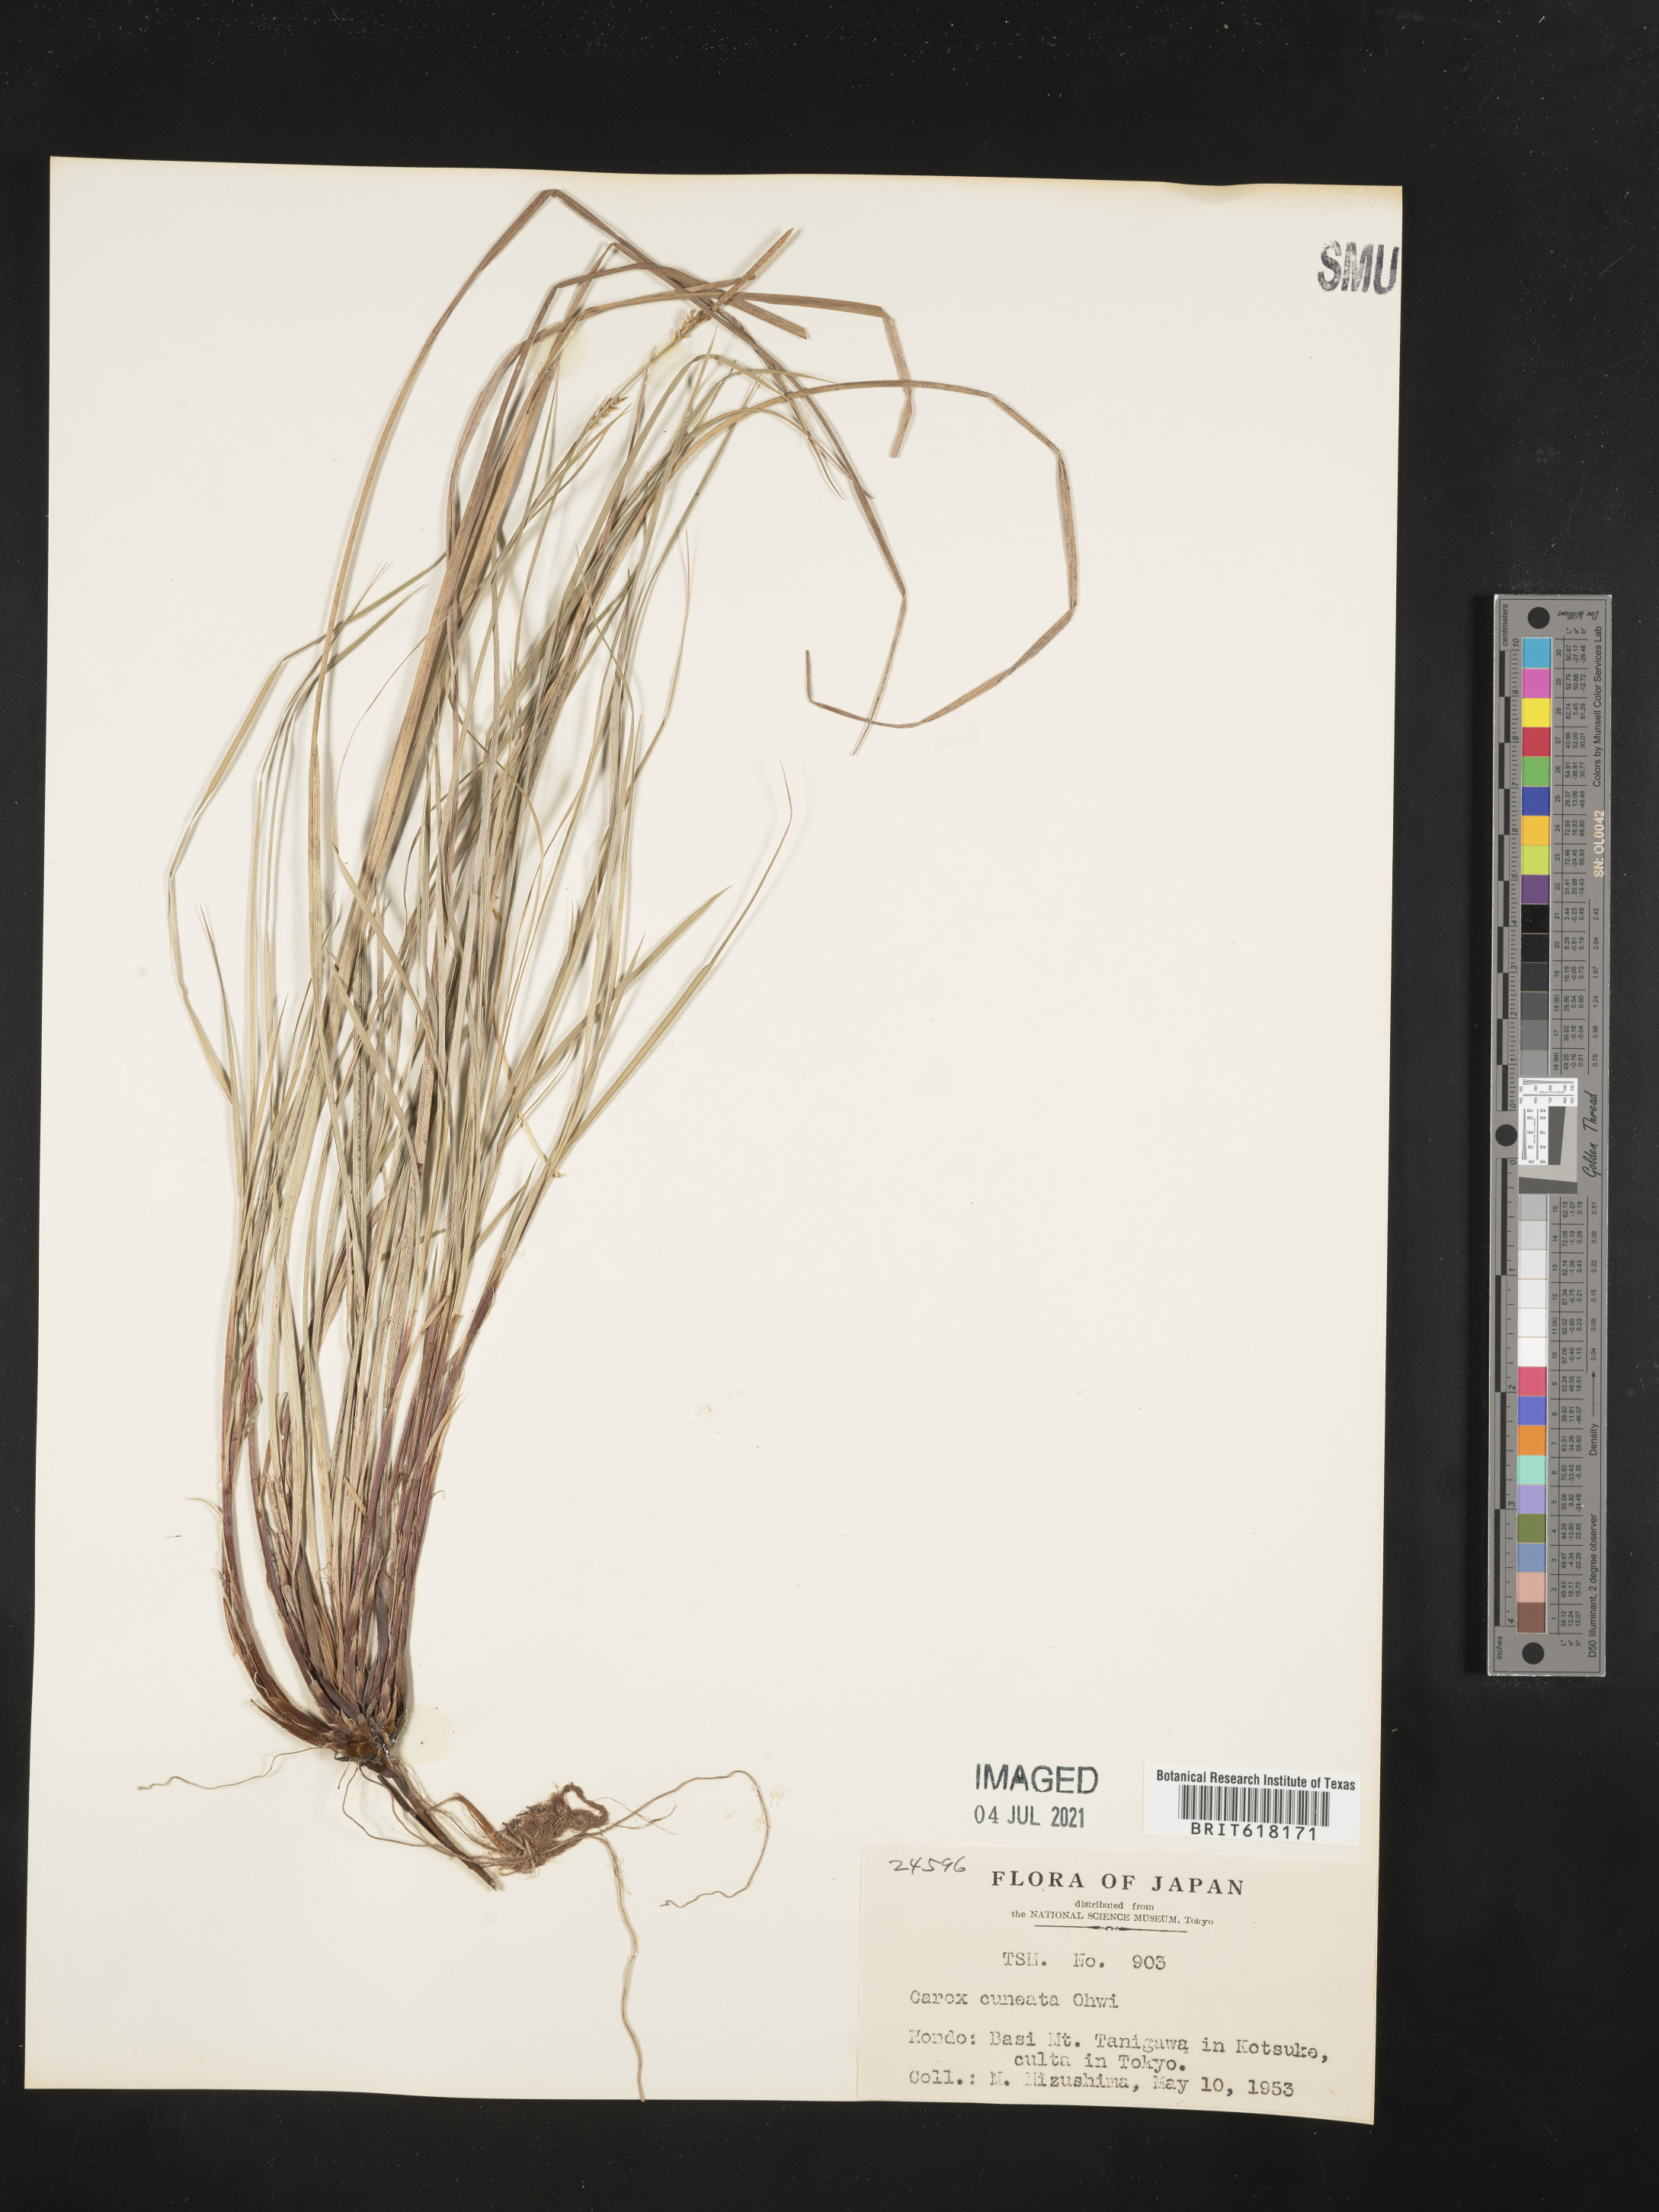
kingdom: Plantae
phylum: Tracheophyta
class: Liliopsida
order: Poales
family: Cyperaceae
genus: Carex
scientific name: Carex stenostachys
